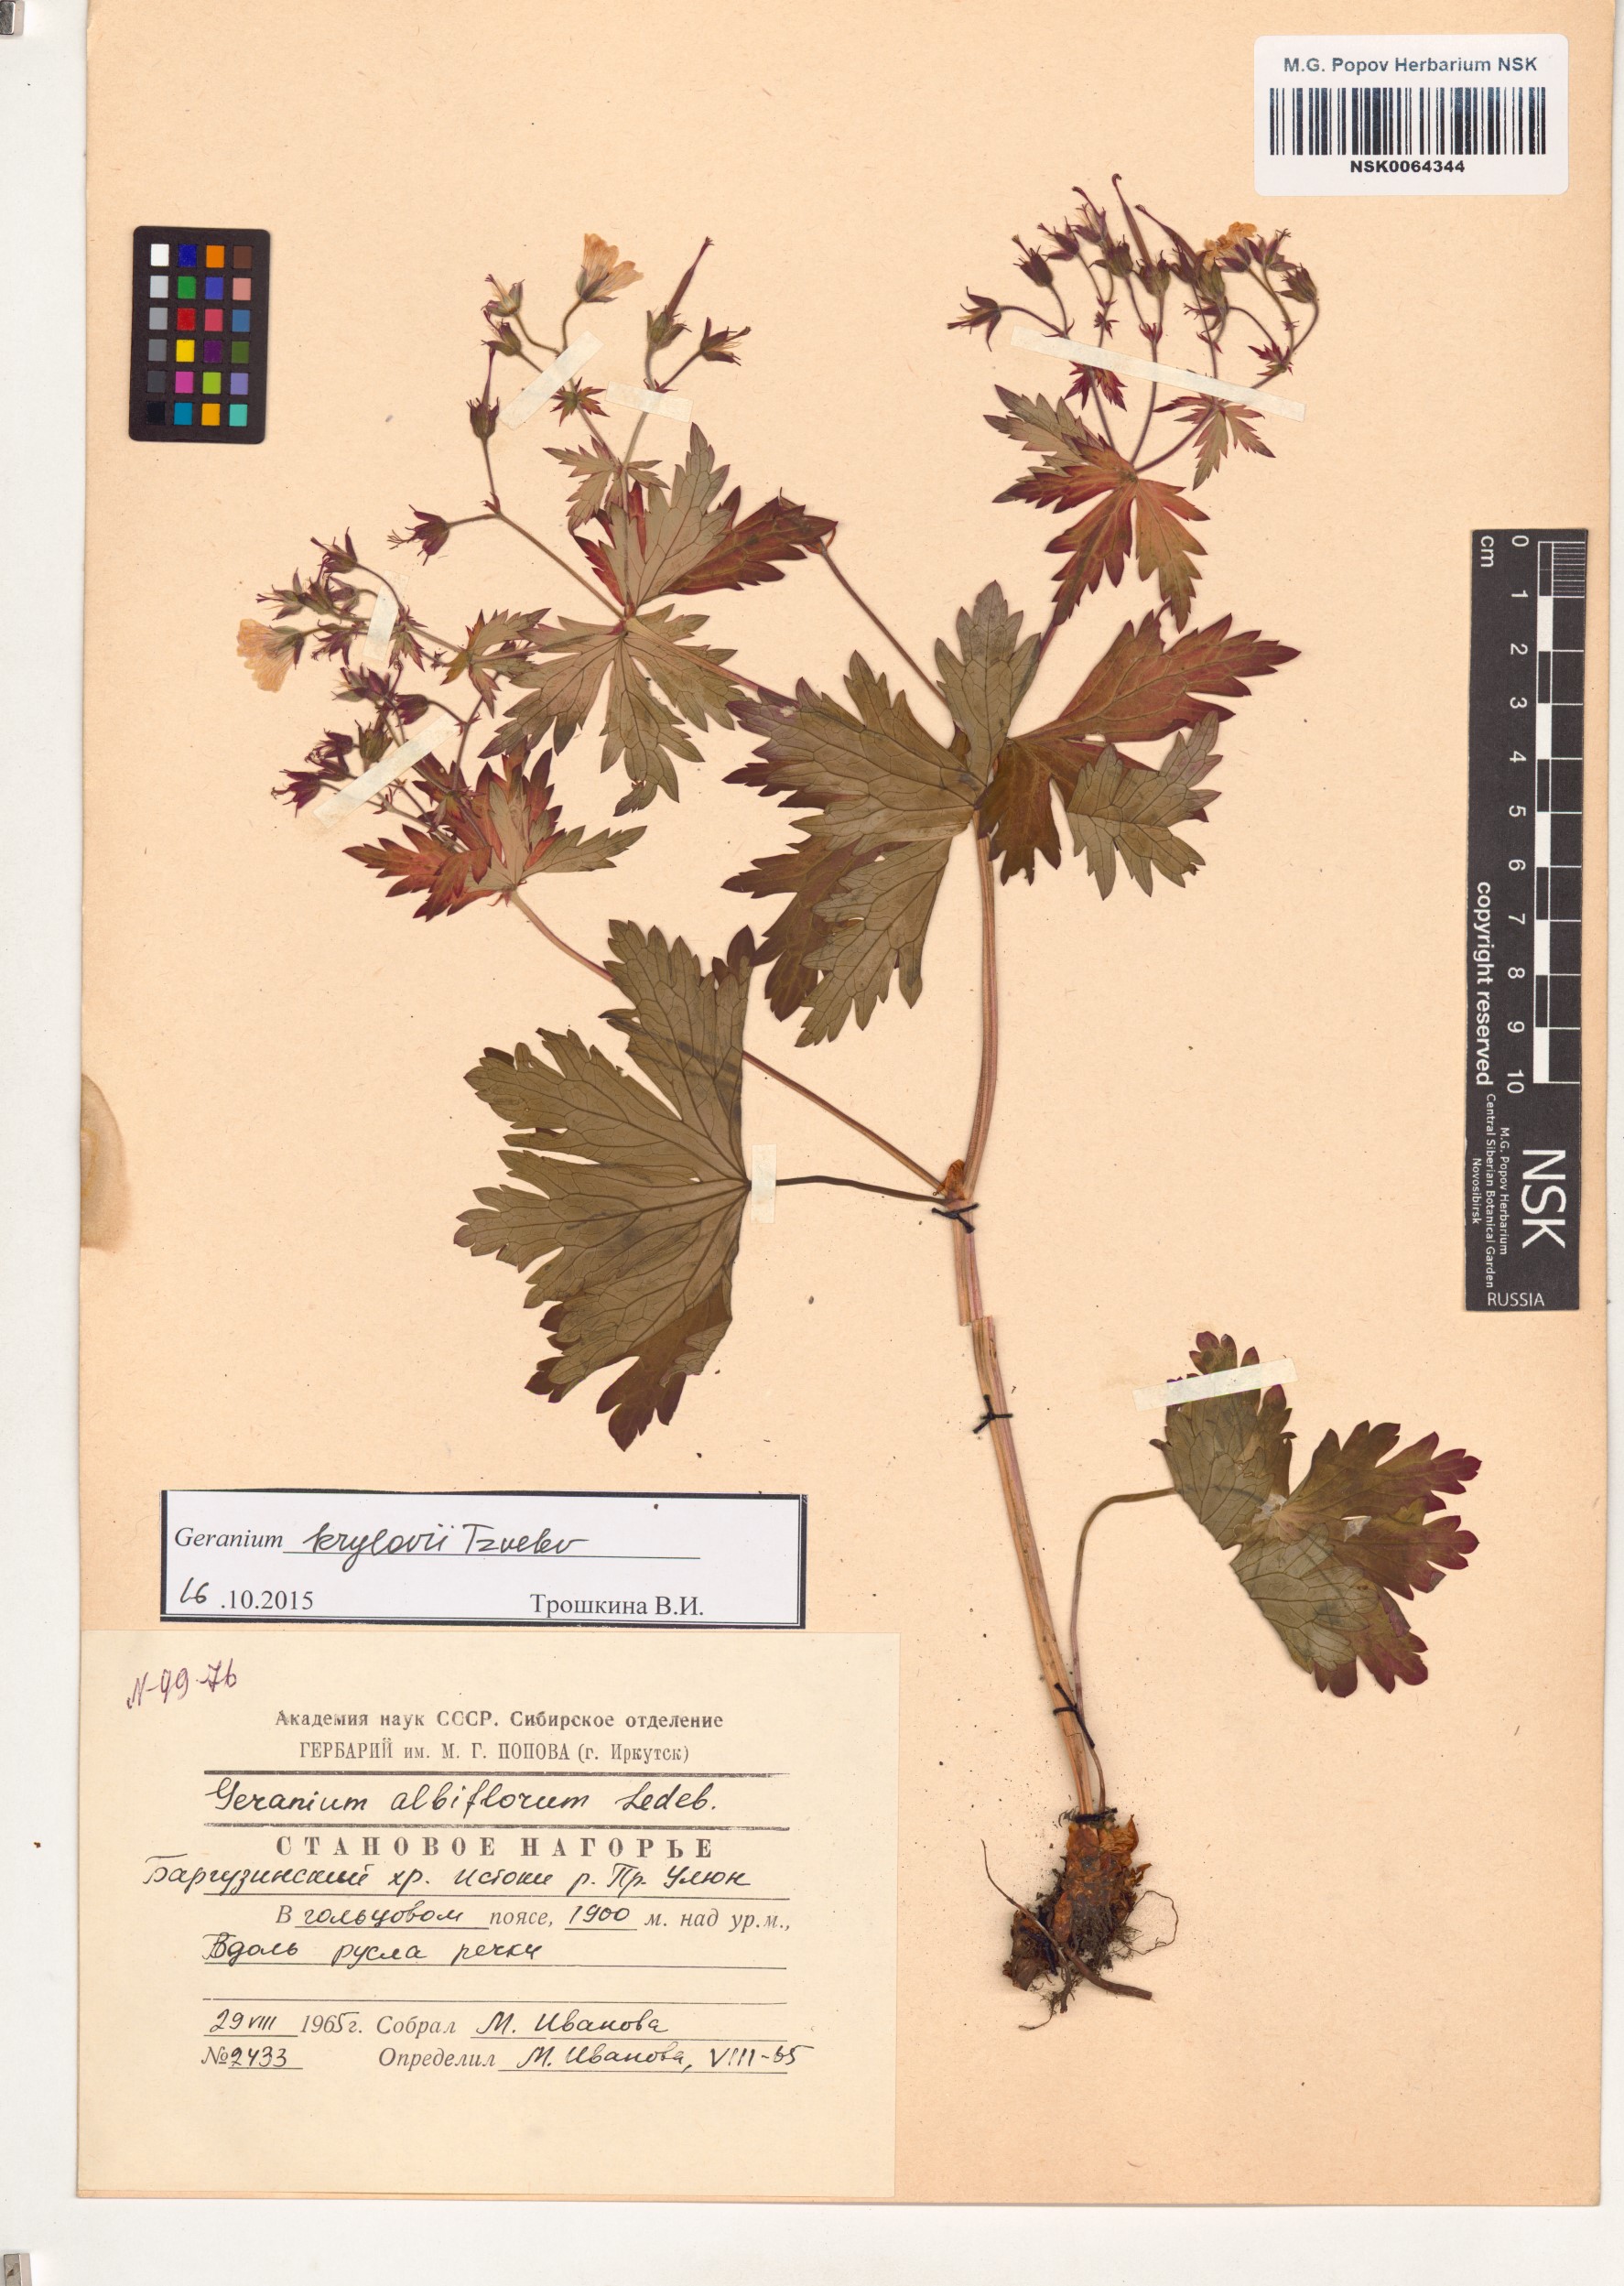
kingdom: Plantae
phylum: Tracheophyta
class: Magnoliopsida
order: Geraniales
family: Geraniaceae
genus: Geranium
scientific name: Geranium sylvaticum
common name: Wood crane's-bill
